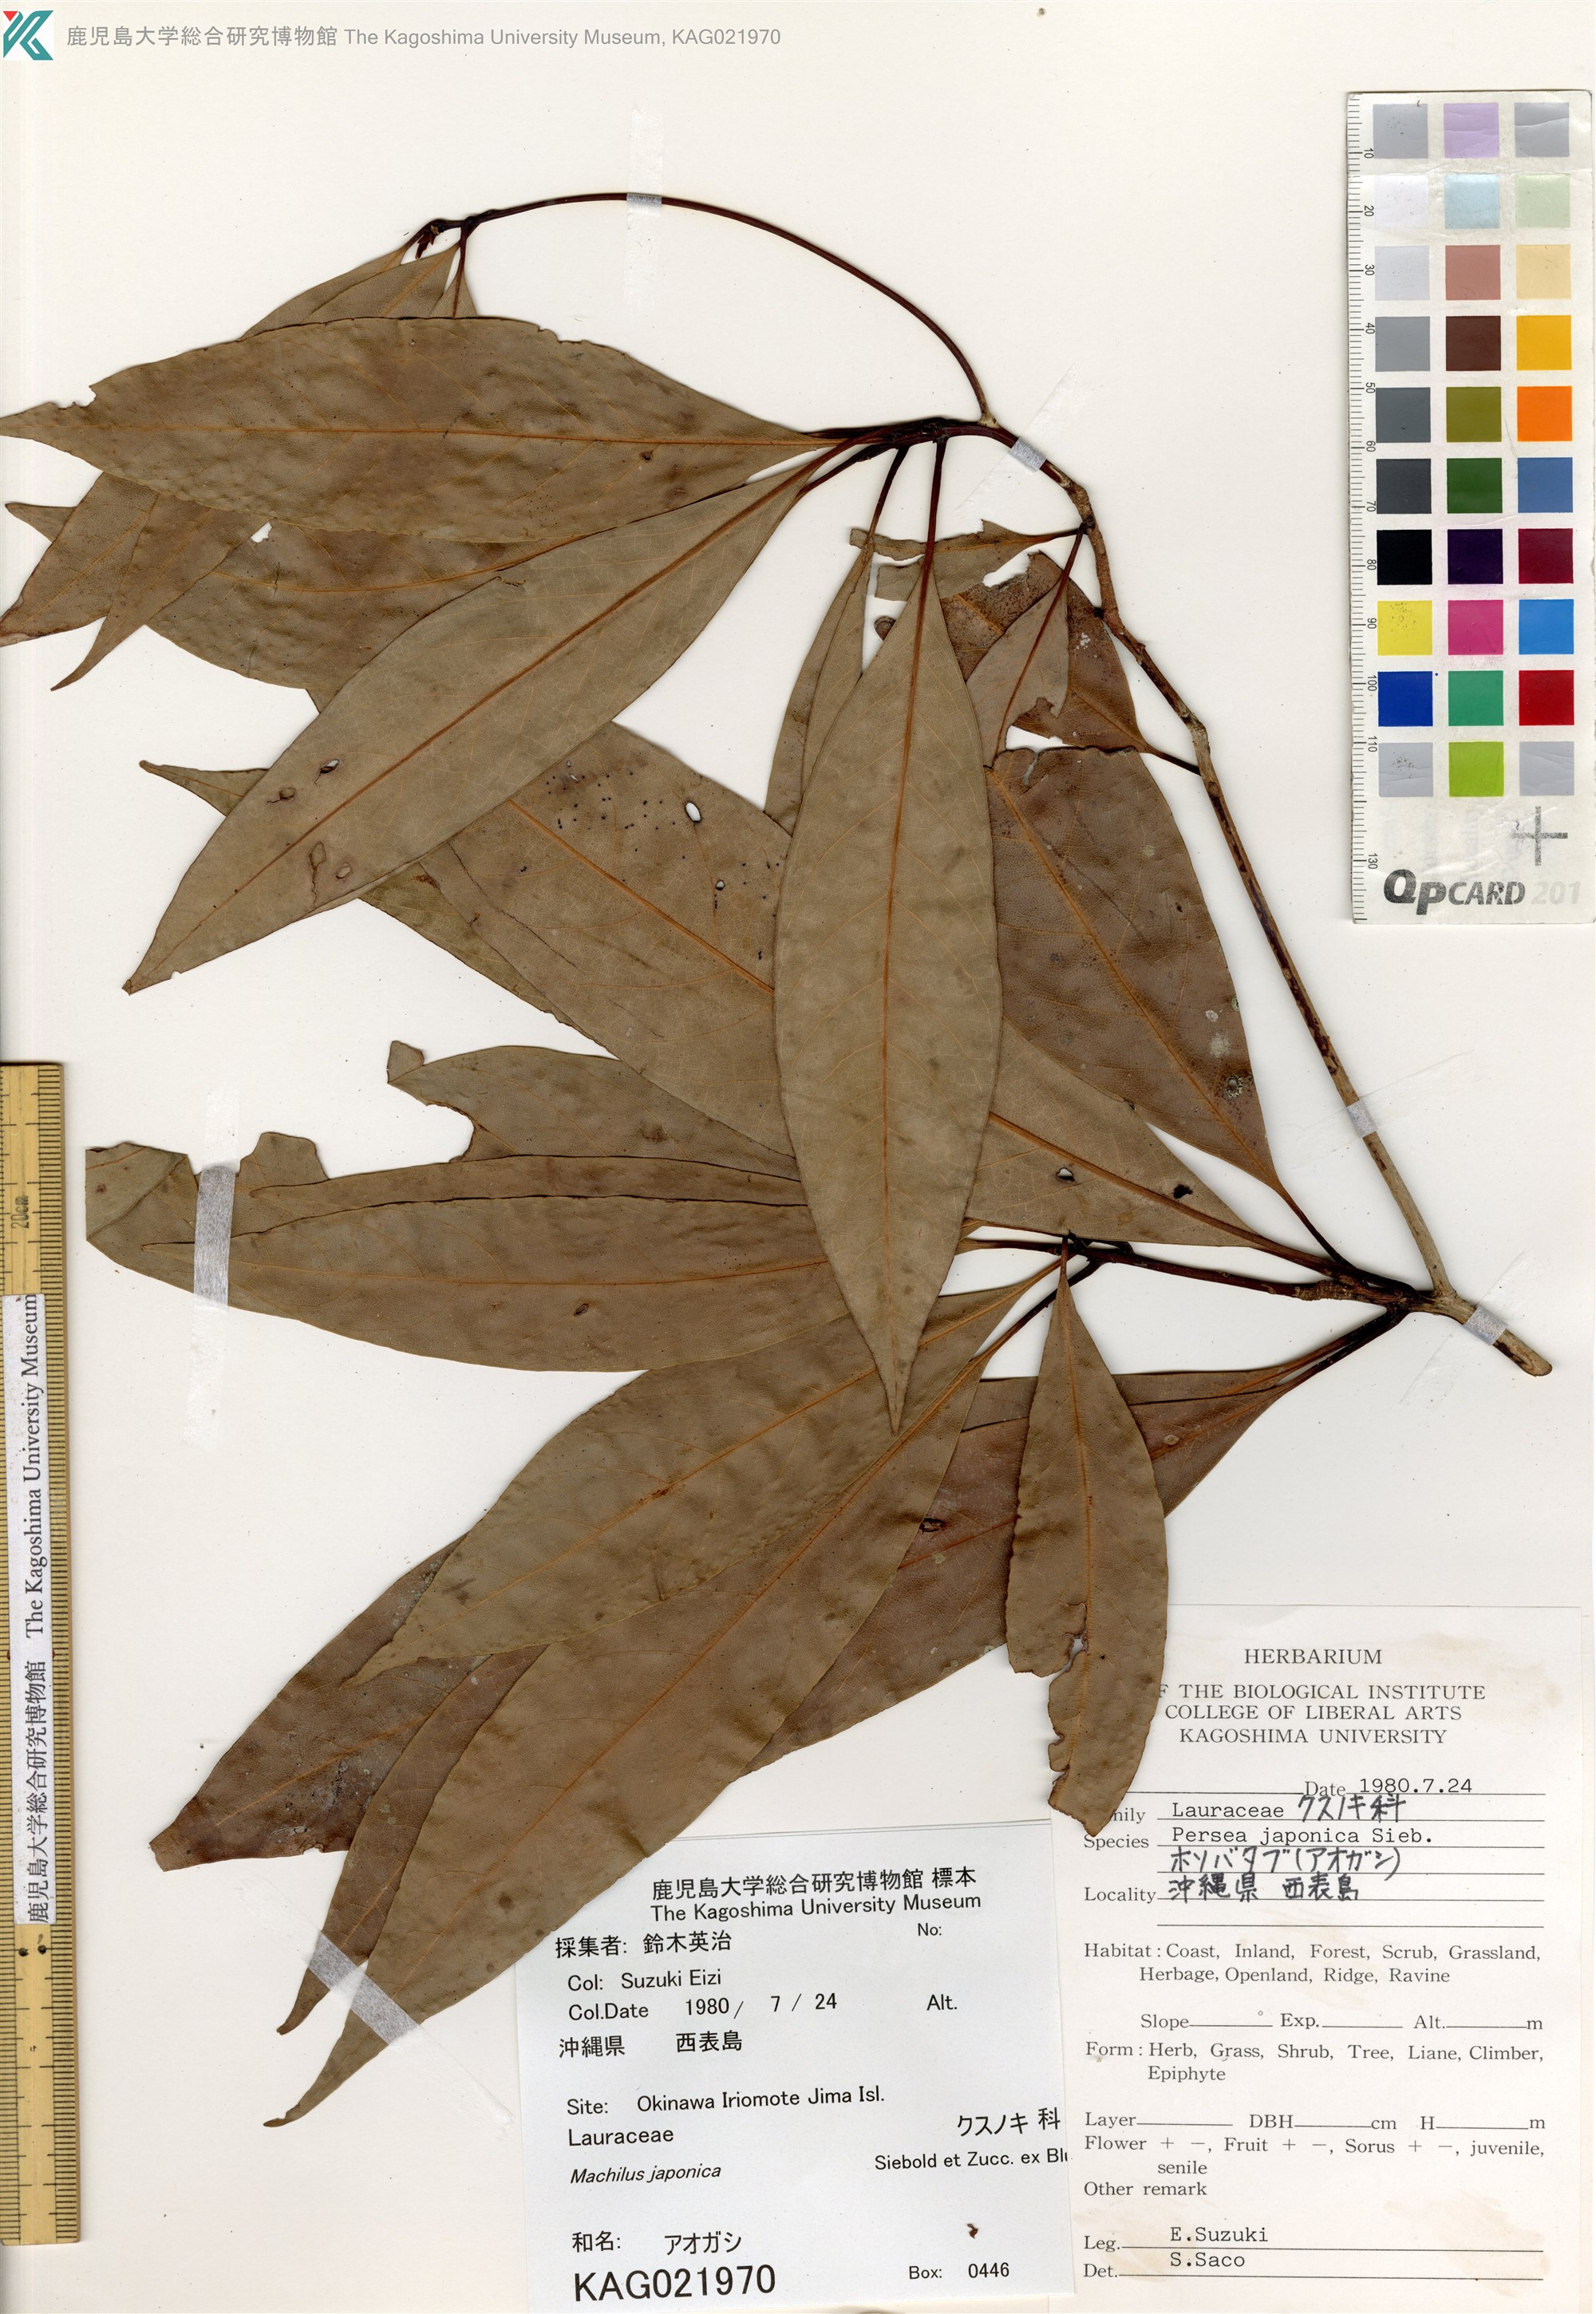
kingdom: Plantae
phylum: Tracheophyta
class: Magnoliopsida
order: Laurales
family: Lauraceae
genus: Machilus
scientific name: Machilus japonica
